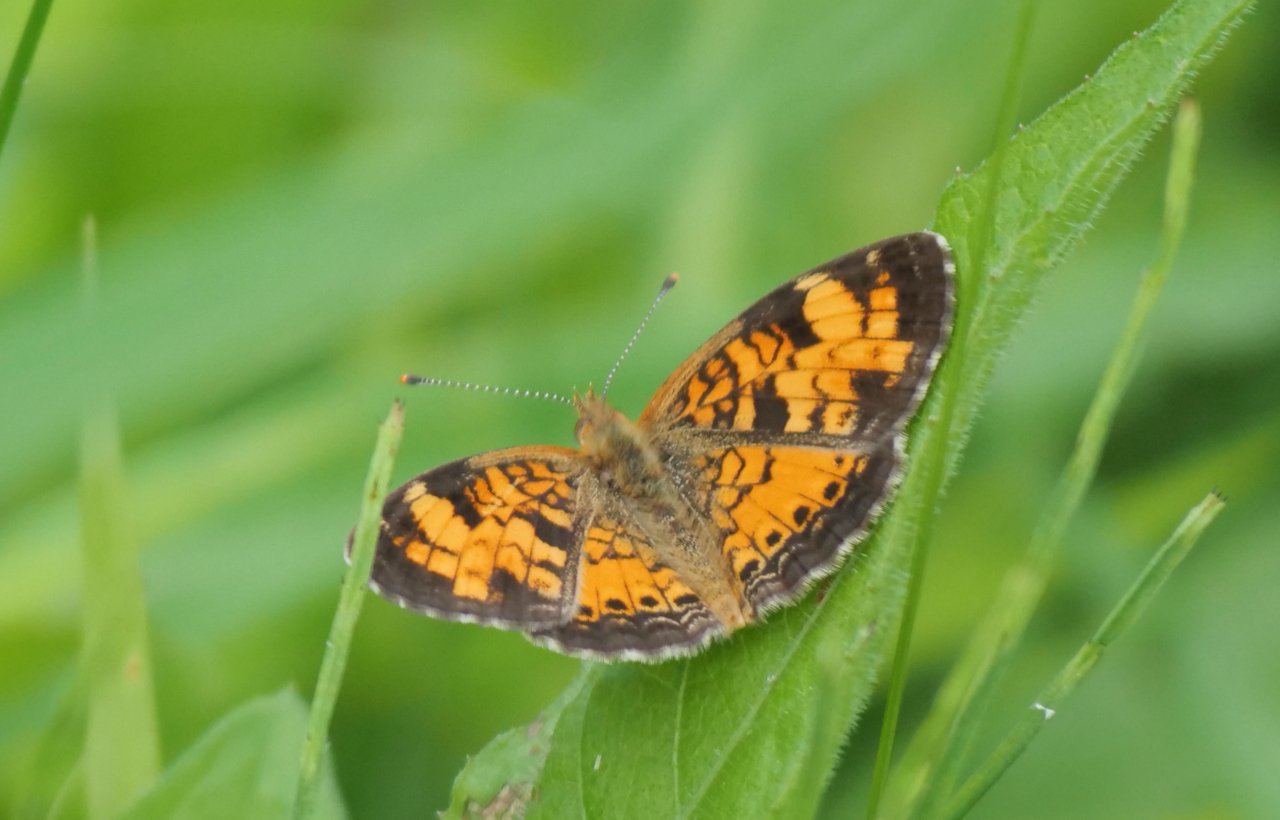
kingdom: Animalia
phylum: Arthropoda
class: Insecta
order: Lepidoptera
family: Nymphalidae
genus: Phyciodes
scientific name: Phyciodes tharos
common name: Northern Crescent
